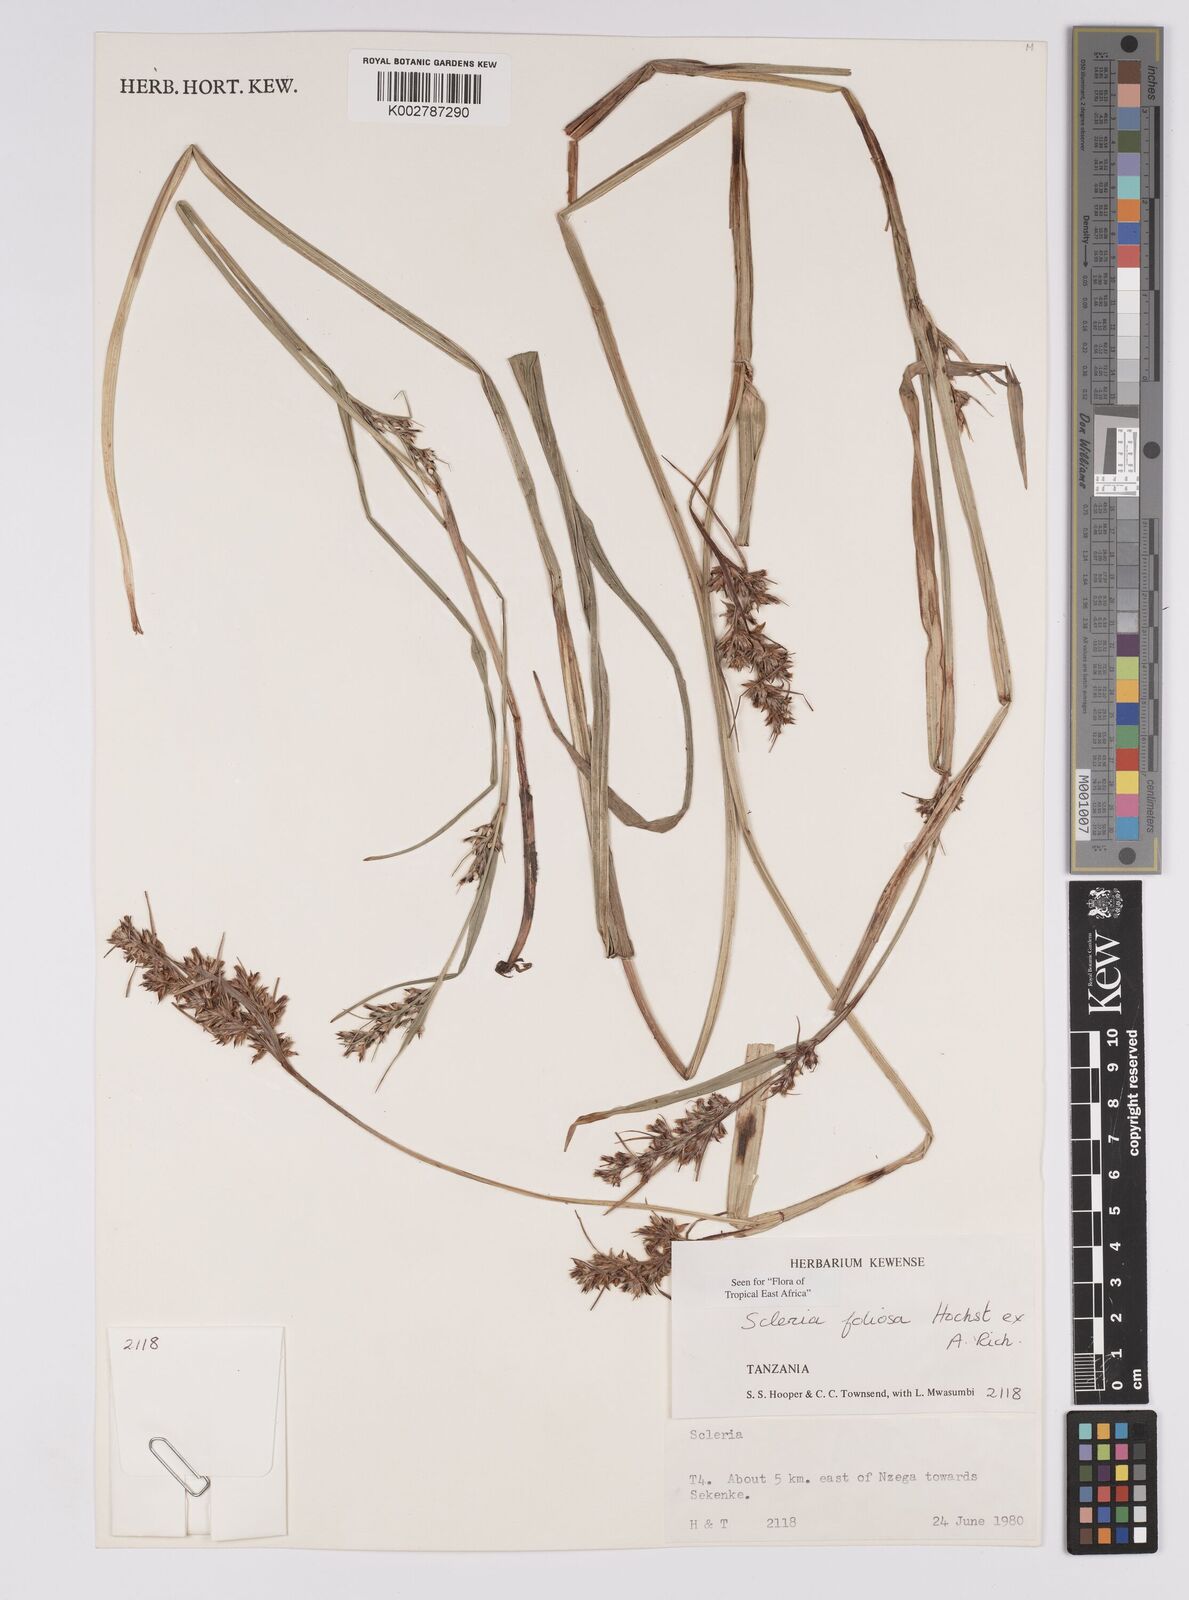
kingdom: Plantae
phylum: Tracheophyta
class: Liliopsida
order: Poales
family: Cyperaceae
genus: Scleria
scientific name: Scleria foliosa
